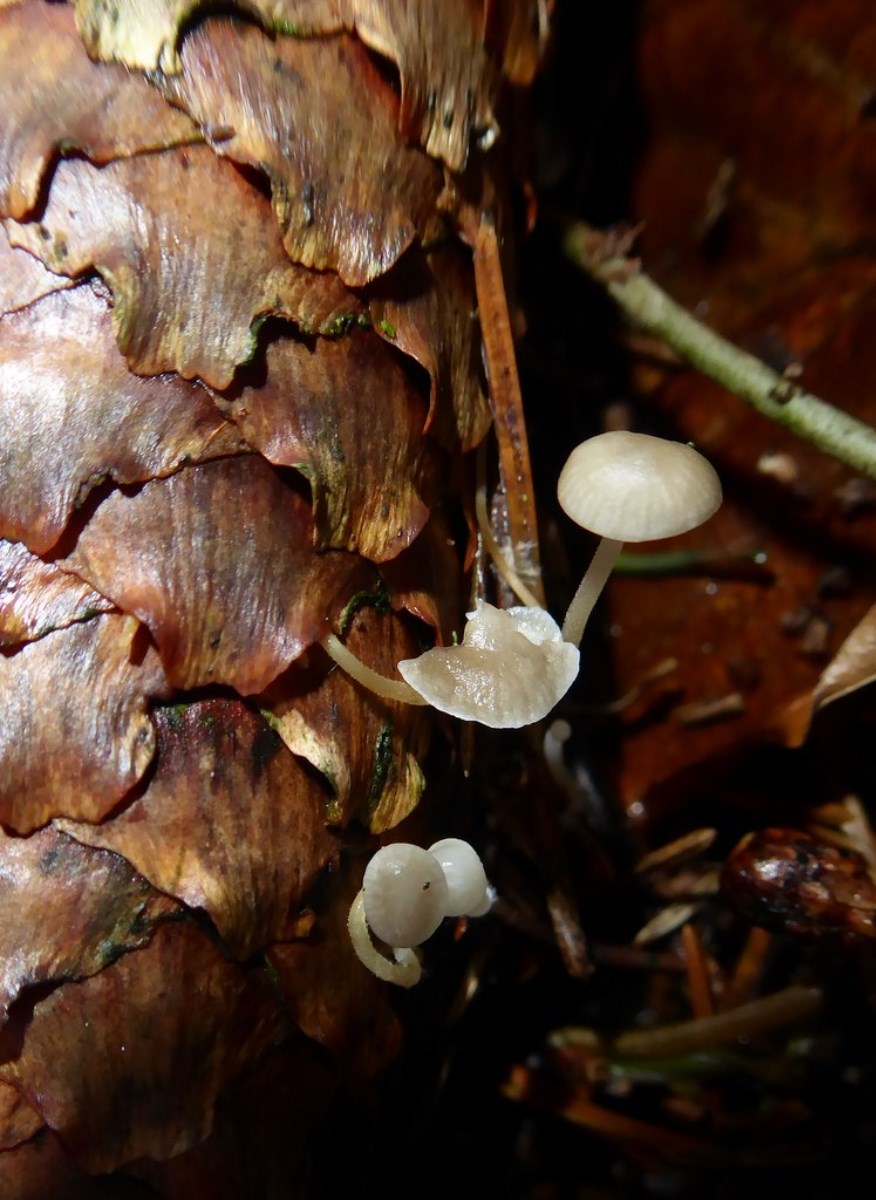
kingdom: Fungi
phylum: Basidiomycota
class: Agaricomycetes
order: Agaricales
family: Physalacriaceae
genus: Strobilurus
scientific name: Strobilurus esculentus
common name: gran-koglehat
